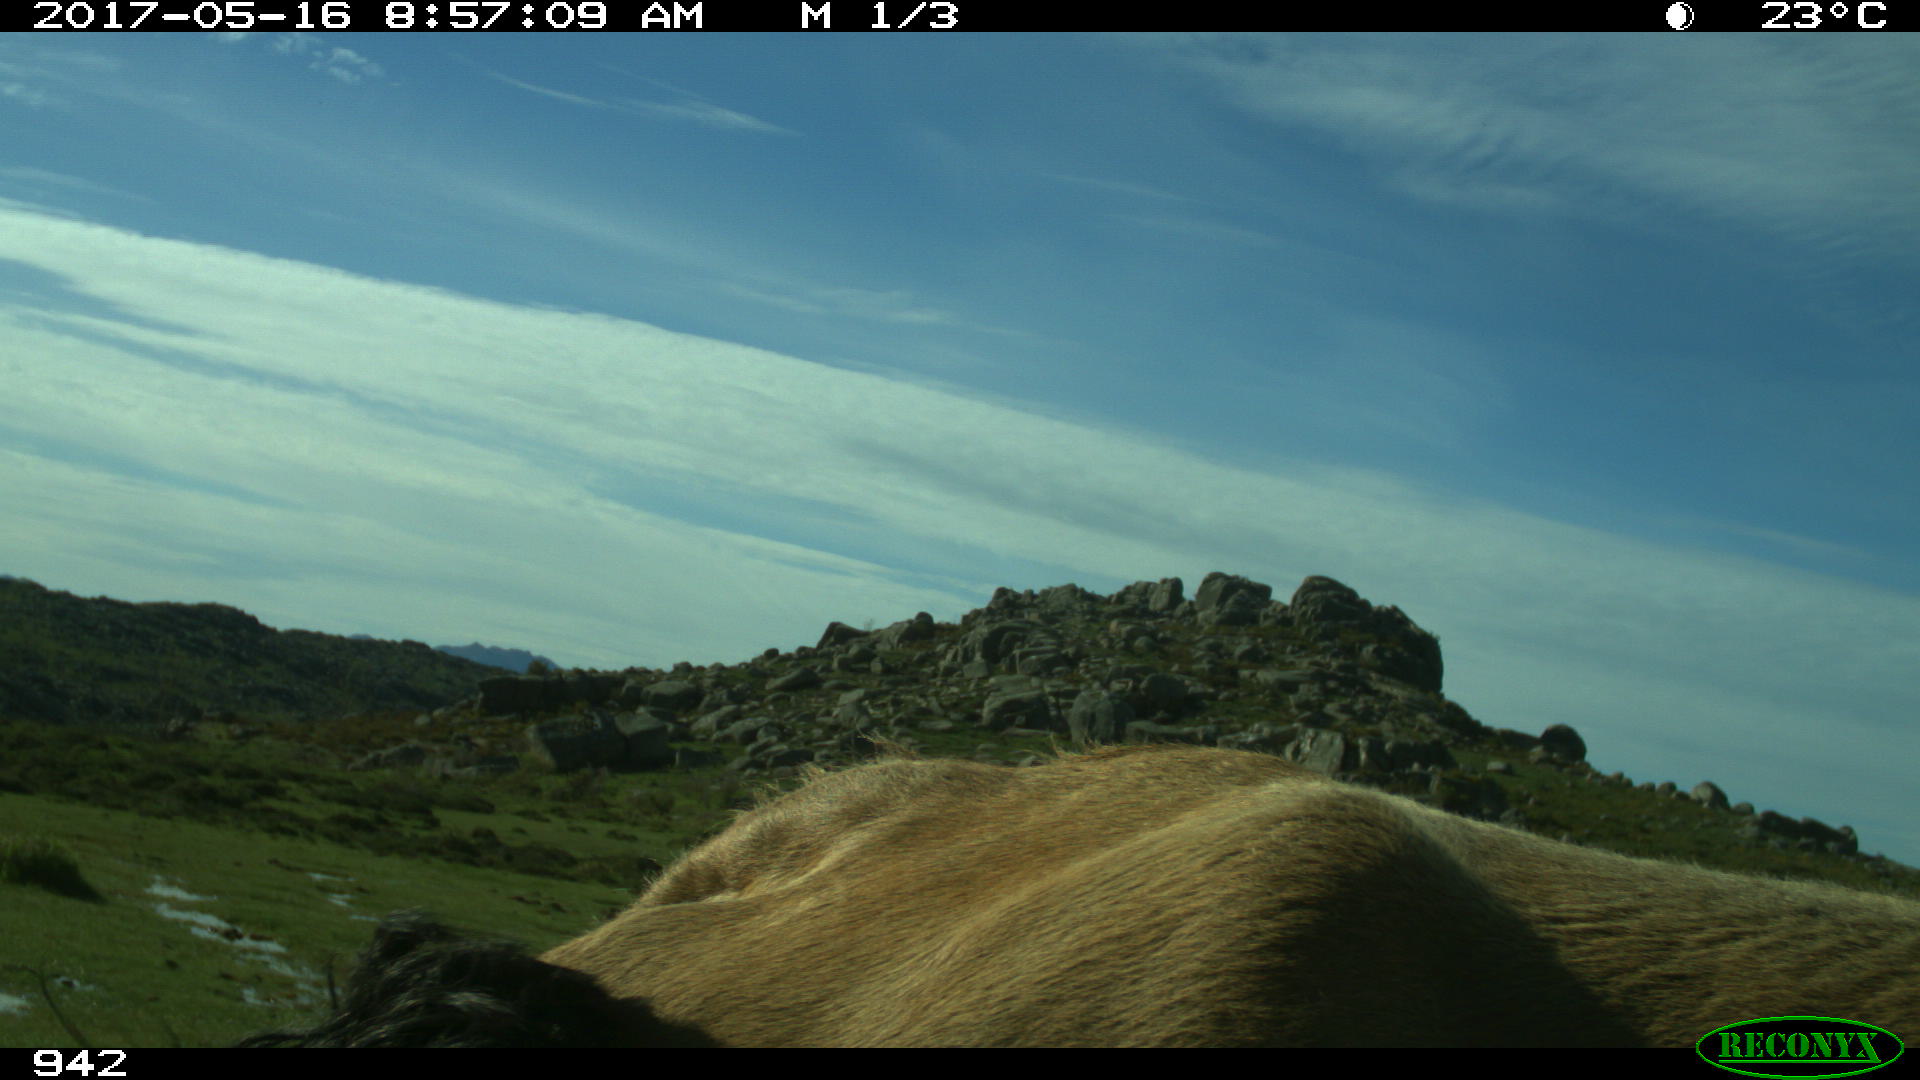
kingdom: Animalia
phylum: Chordata
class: Mammalia
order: Artiodactyla
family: Bovidae
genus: Bos
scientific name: Bos taurus
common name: Domesticated cattle
